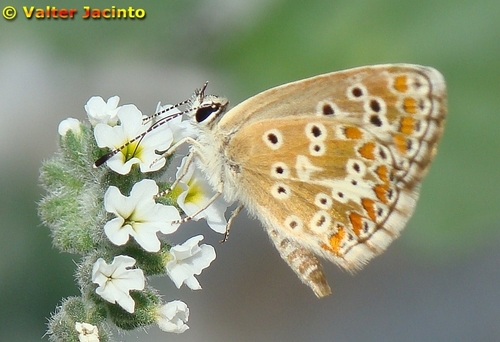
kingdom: Animalia
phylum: Arthropoda
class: Insecta
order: Lepidoptera
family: Lycaenidae
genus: Aricia
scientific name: Aricia cramera
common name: Eschscholtz´s brown  argus
